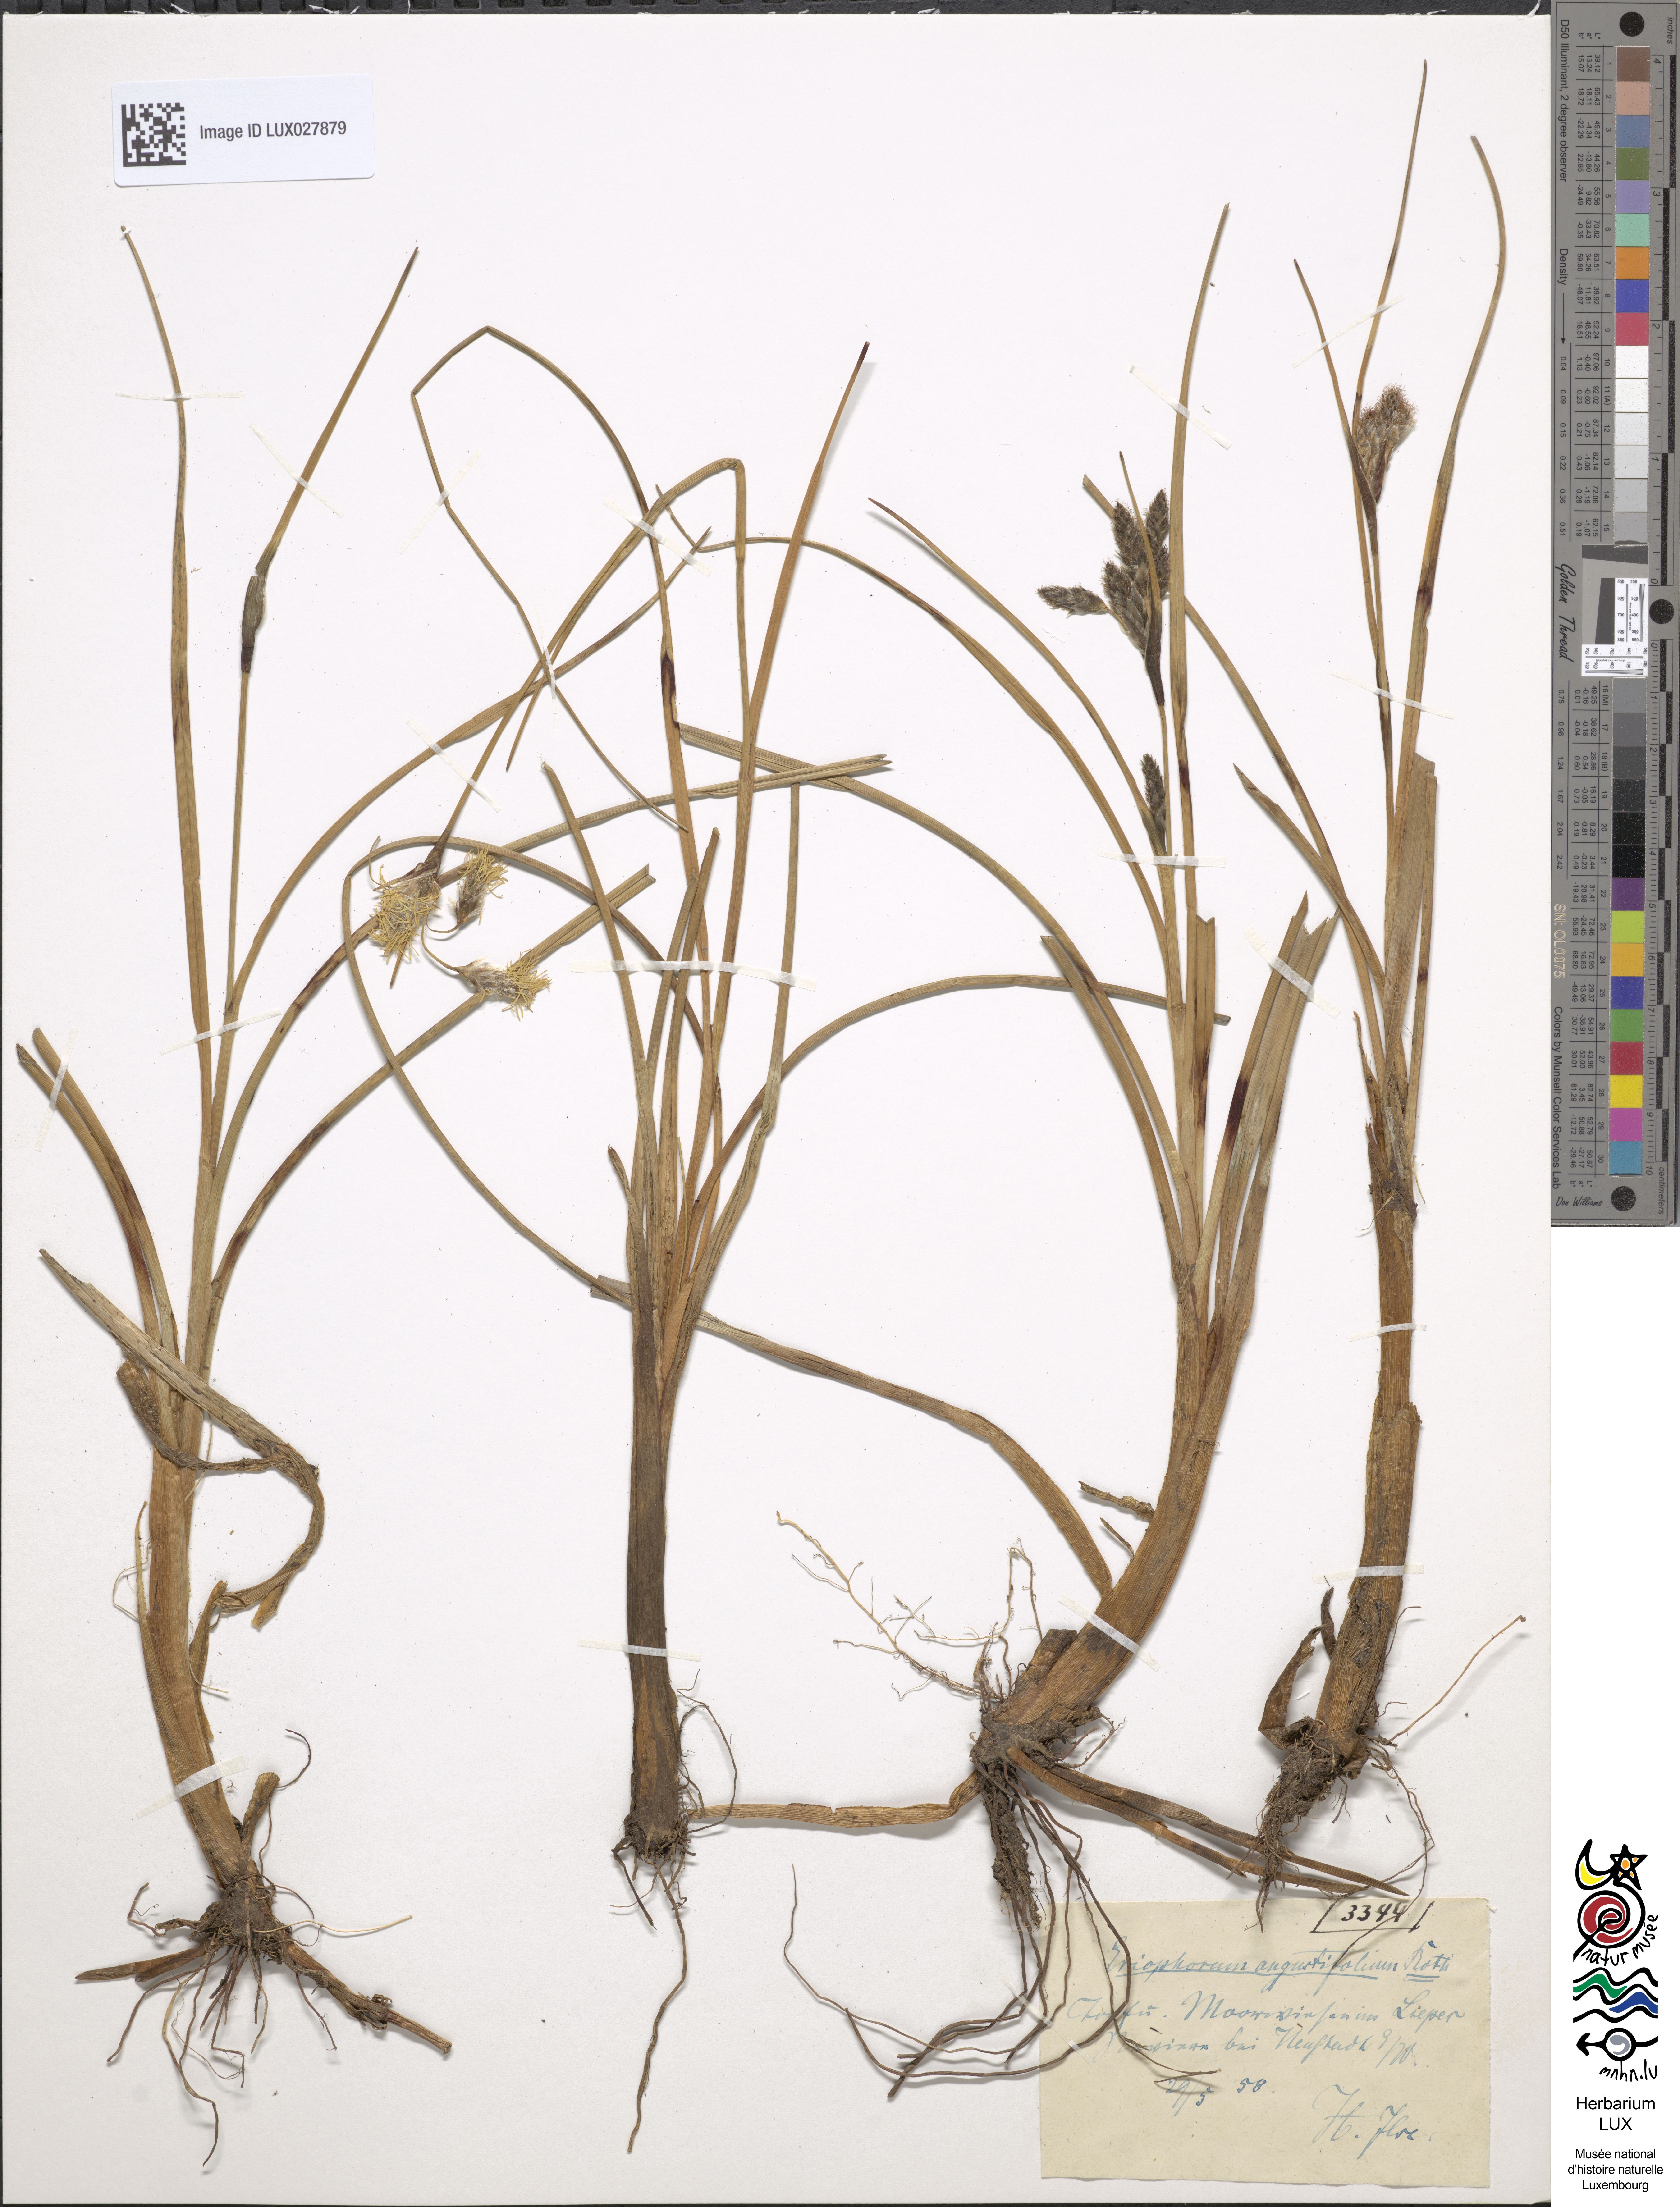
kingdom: Plantae
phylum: Tracheophyta
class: Liliopsida
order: Poales
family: Cyperaceae
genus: Eriophorum
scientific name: Eriophorum angustifolium
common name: Common cottongrass
